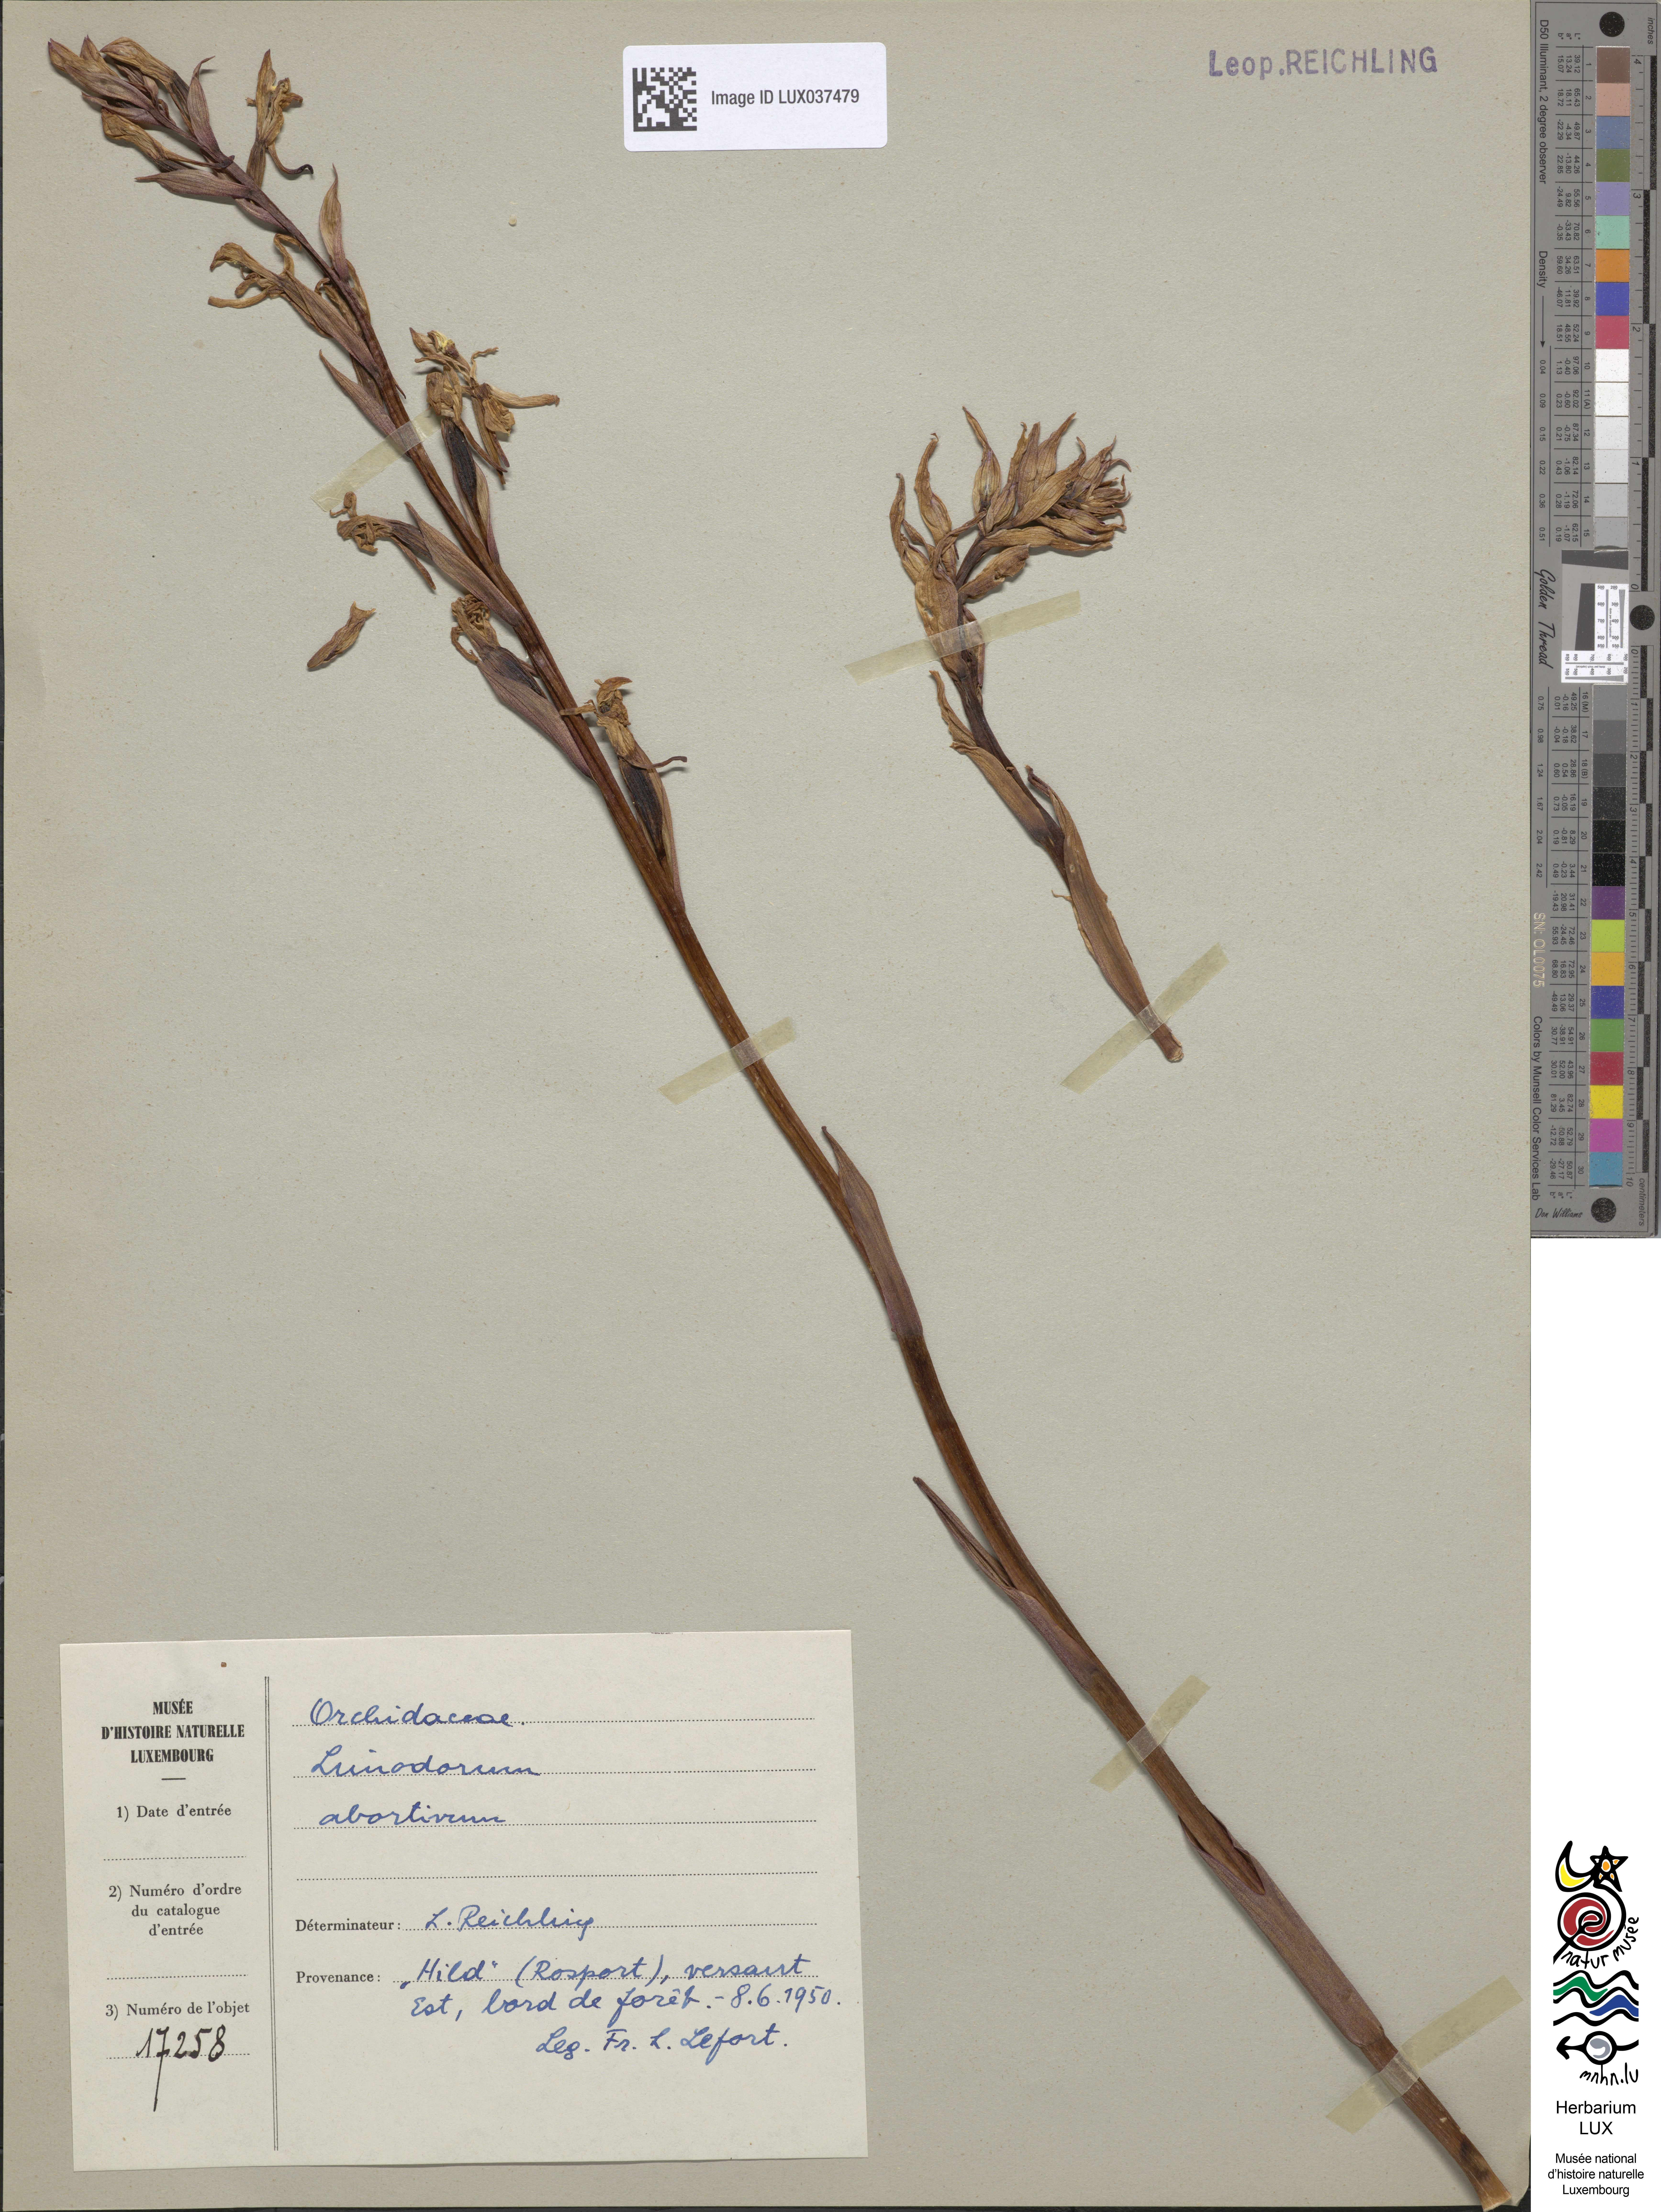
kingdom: Plantae
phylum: Tracheophyta
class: Liliopsida
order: Asparagales
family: Orchidaceae
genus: Limodorum
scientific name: Limodorum abortivum
